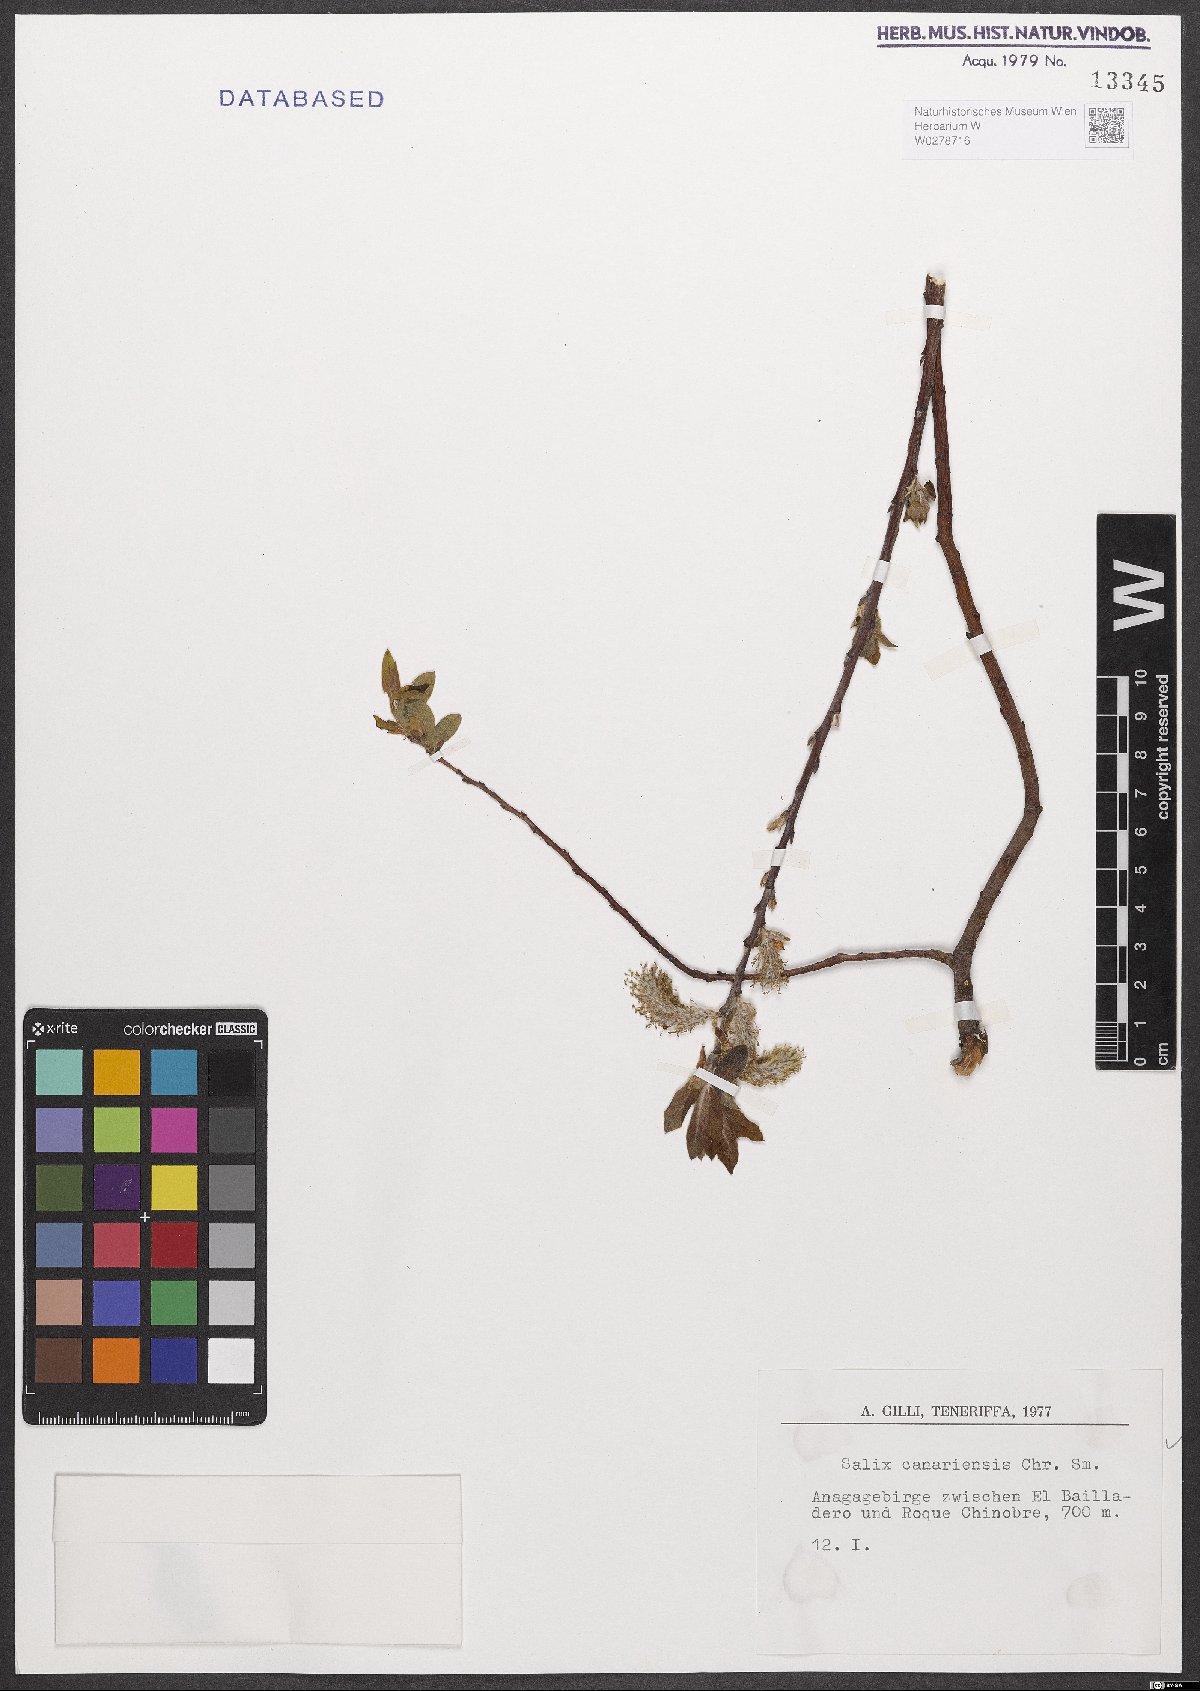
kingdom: Plantae
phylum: Tracheophyta
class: Magnoliopsida
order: Malpighiales
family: Salicaceae
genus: Salix
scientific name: Salix canariensis
